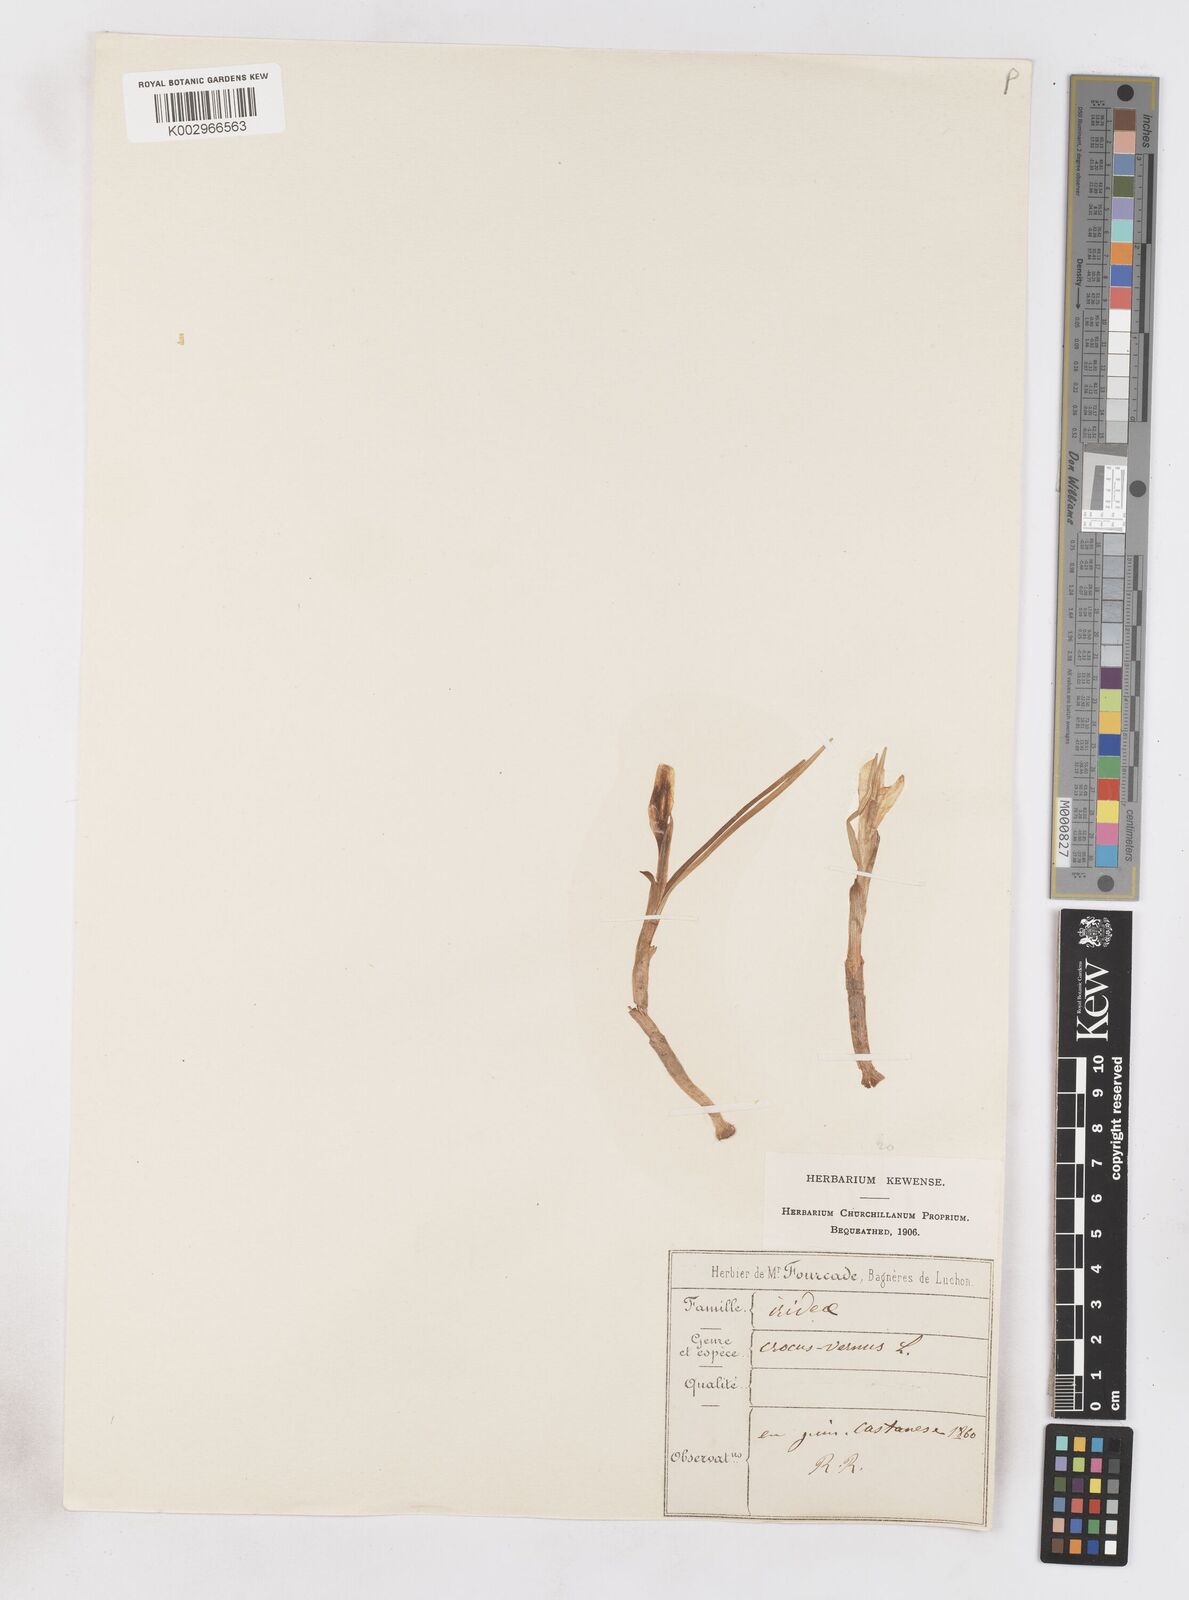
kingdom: Plantae
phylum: Tracheophyta
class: Liliopsida
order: Asparagales
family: Iridaceae
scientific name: Iridaceae
